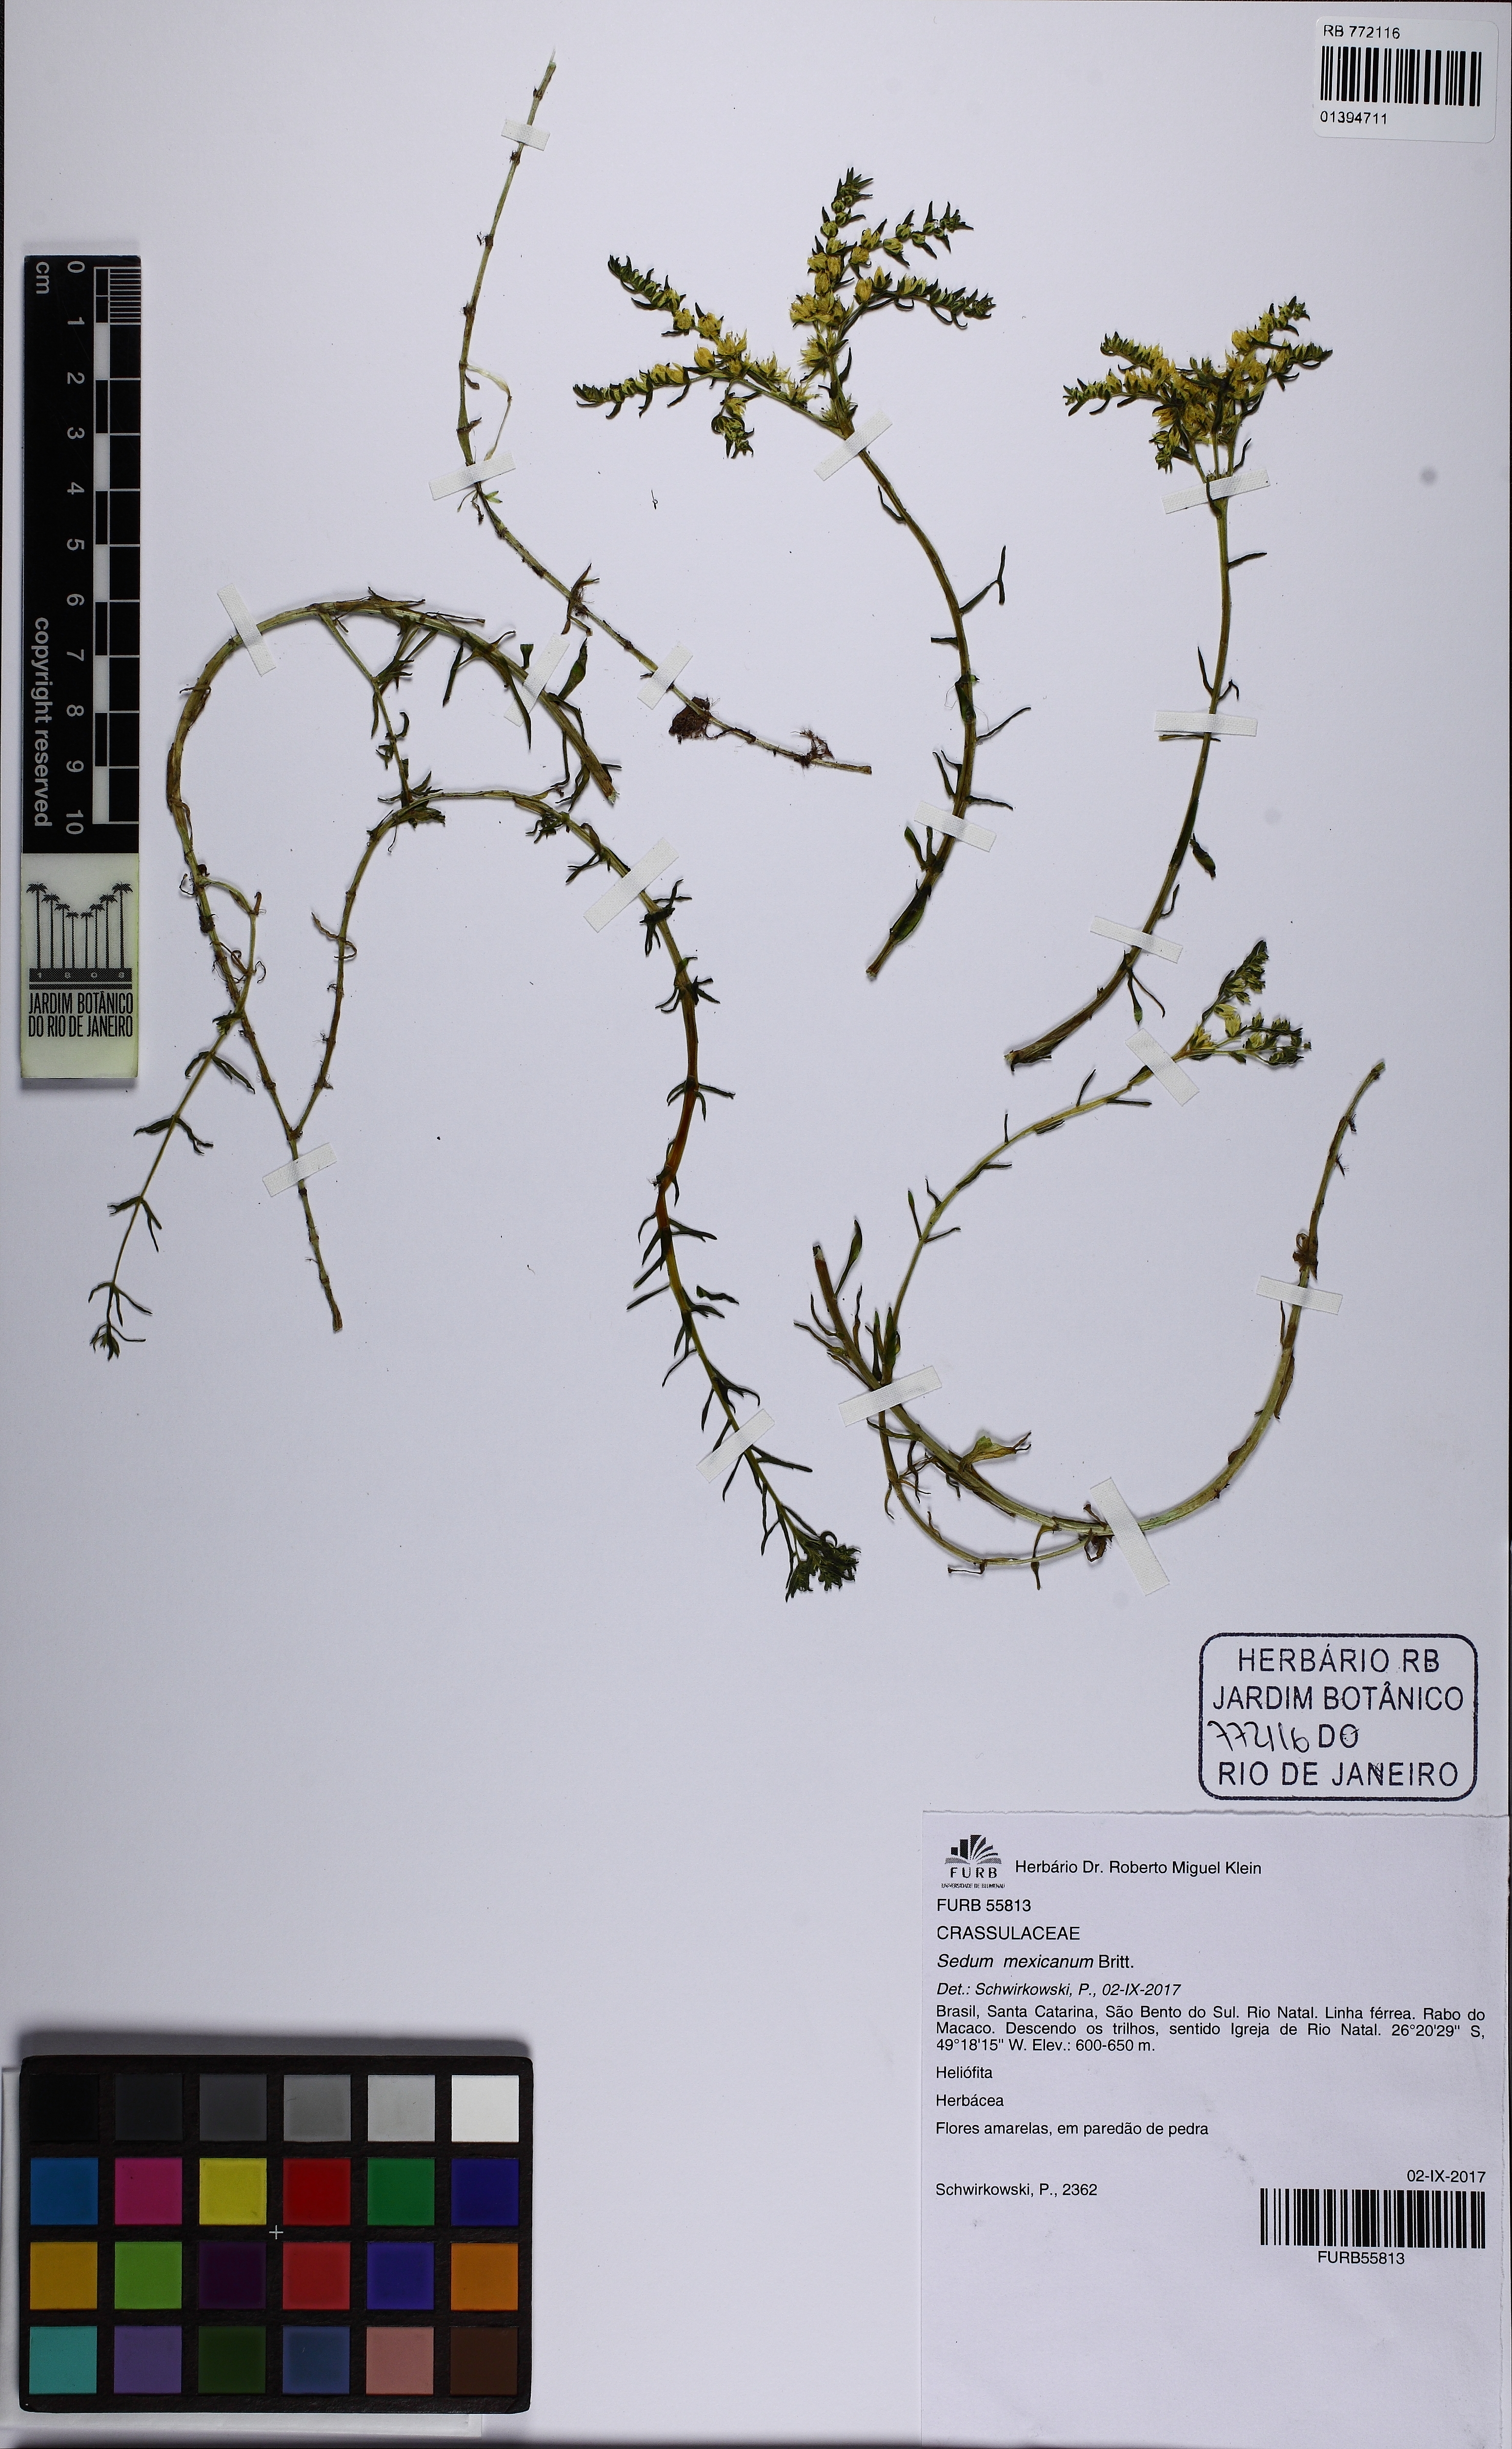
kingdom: Plantae
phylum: Tracheophyta
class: Magnoliopsida
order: Saxifragales
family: Crassulaceae
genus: Sedum
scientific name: Sedum mexicanum
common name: Mexican stonecrop
